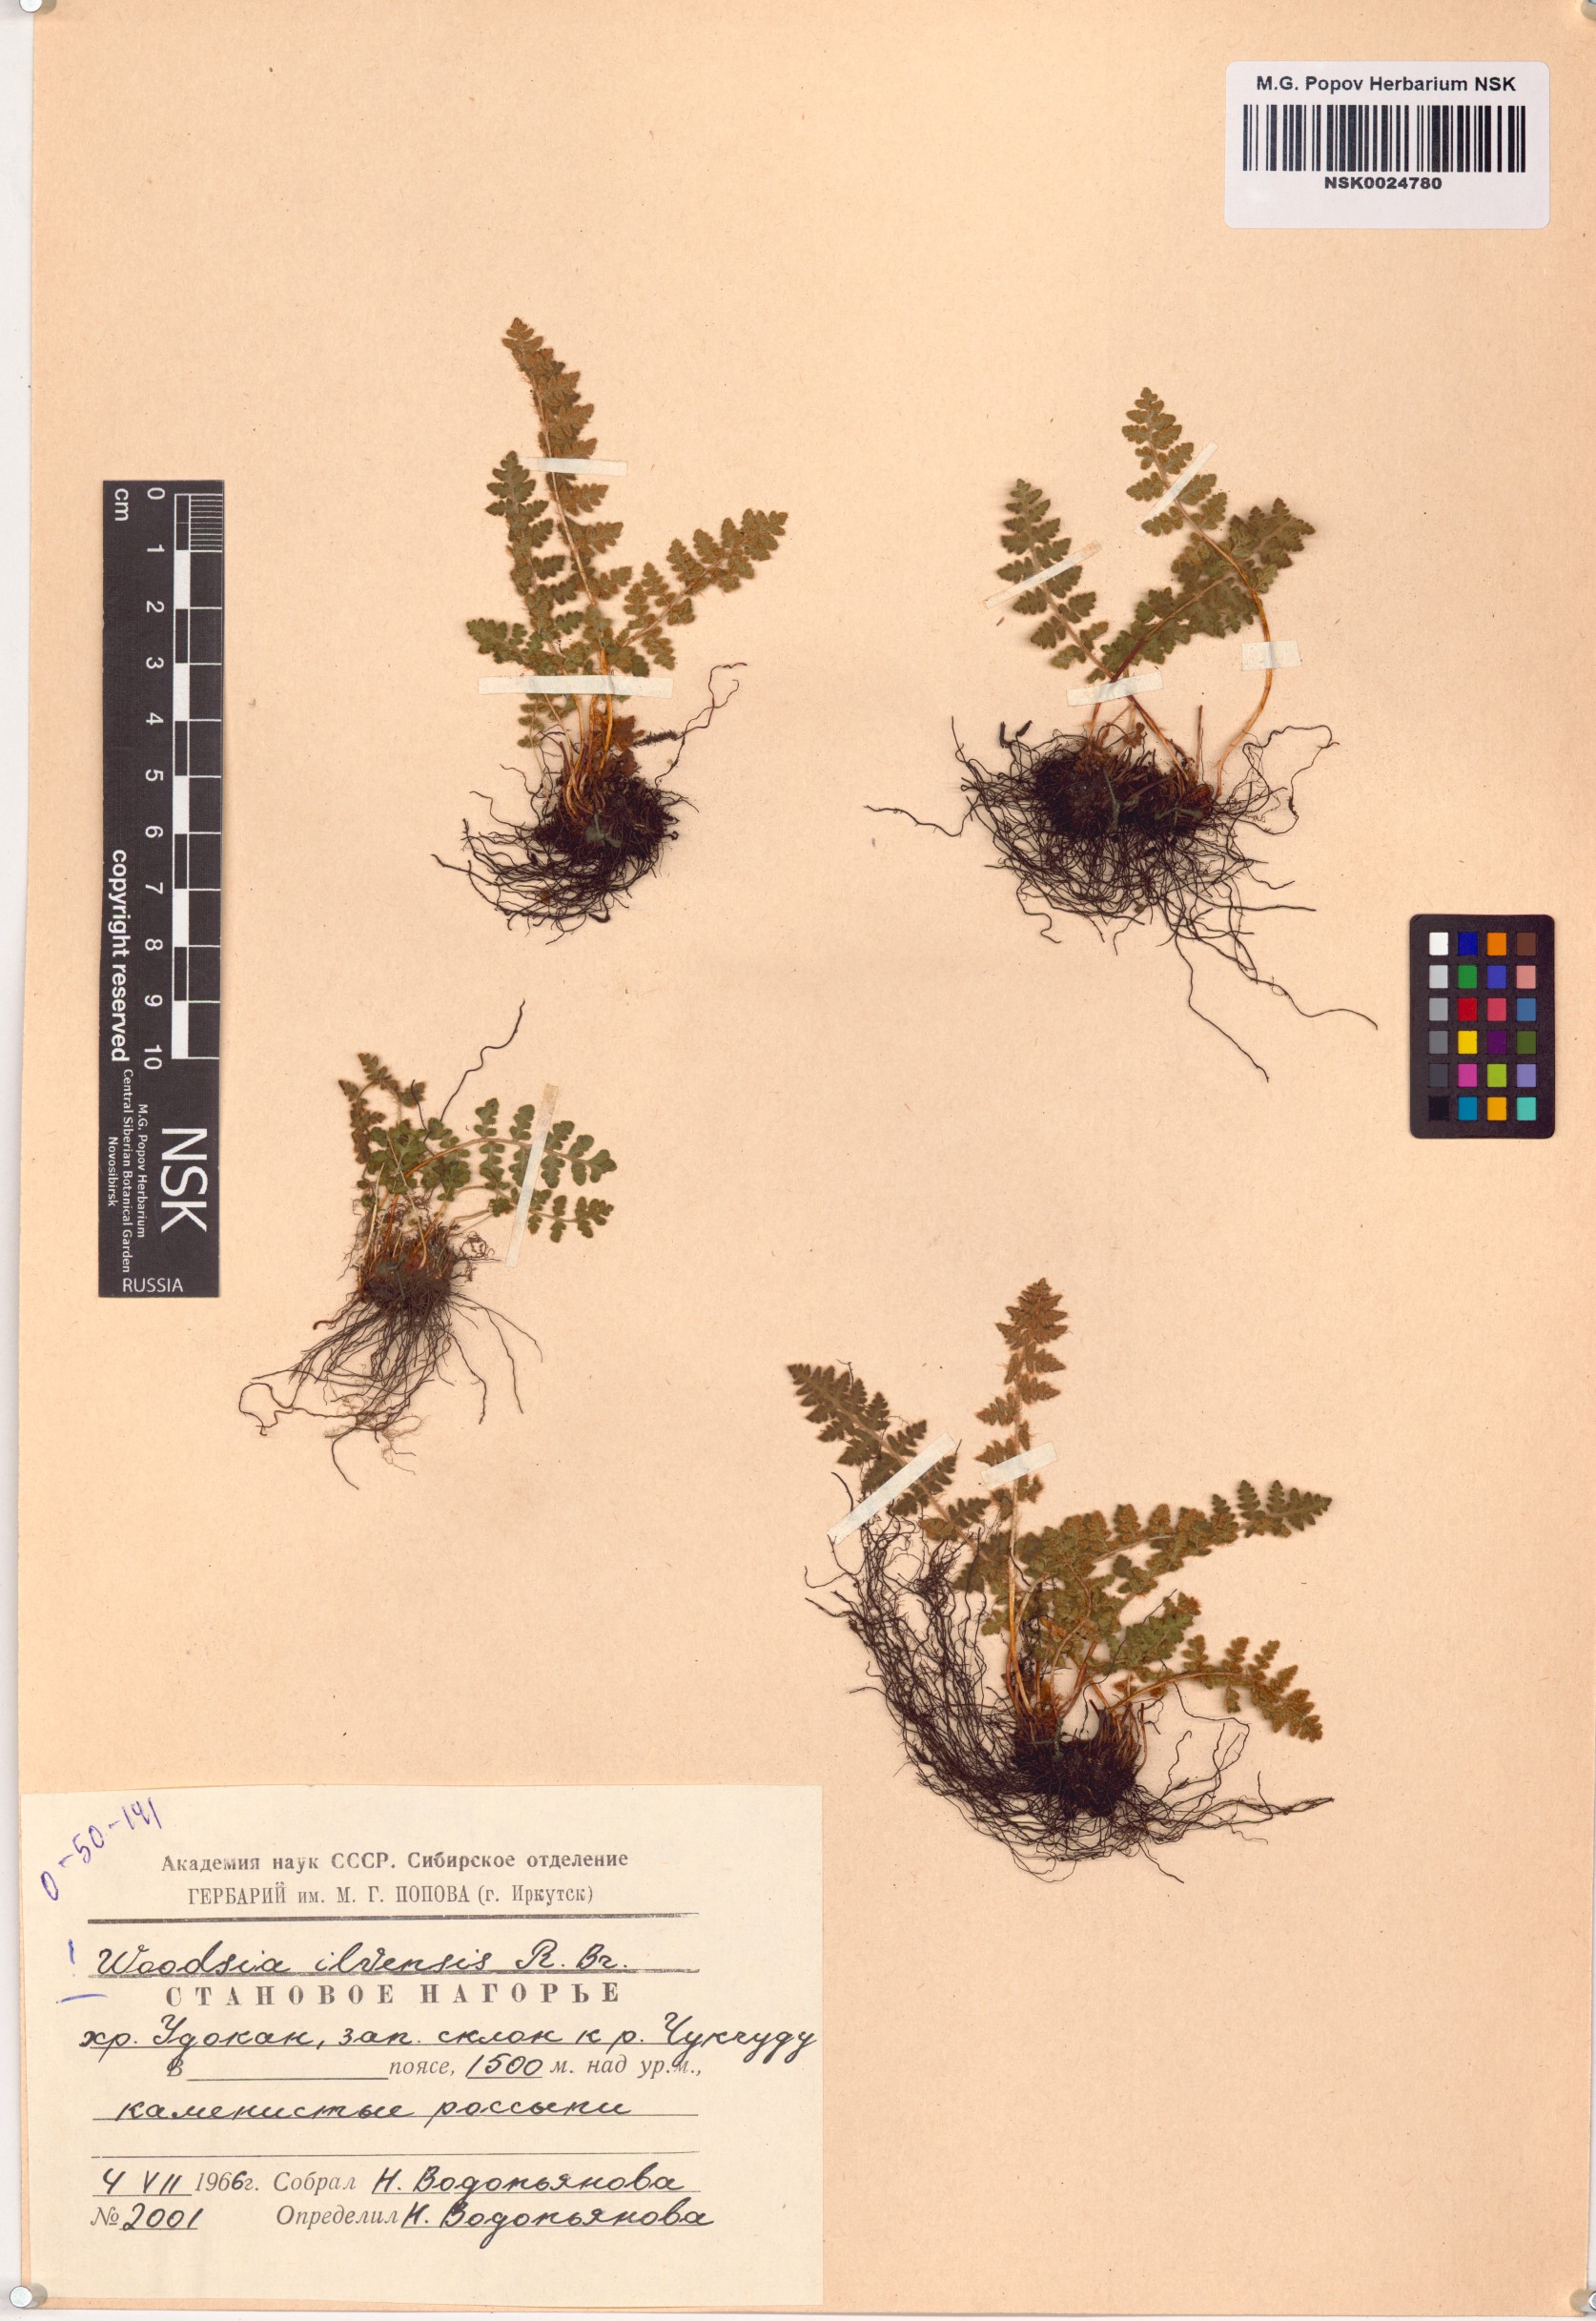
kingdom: Plantae
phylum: Tracheophyta
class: Polypodiopsida
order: Polypodiales
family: Woodsiaceae
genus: Woodsia
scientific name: Woodsia ilvensis
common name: Fragrant woodsia
